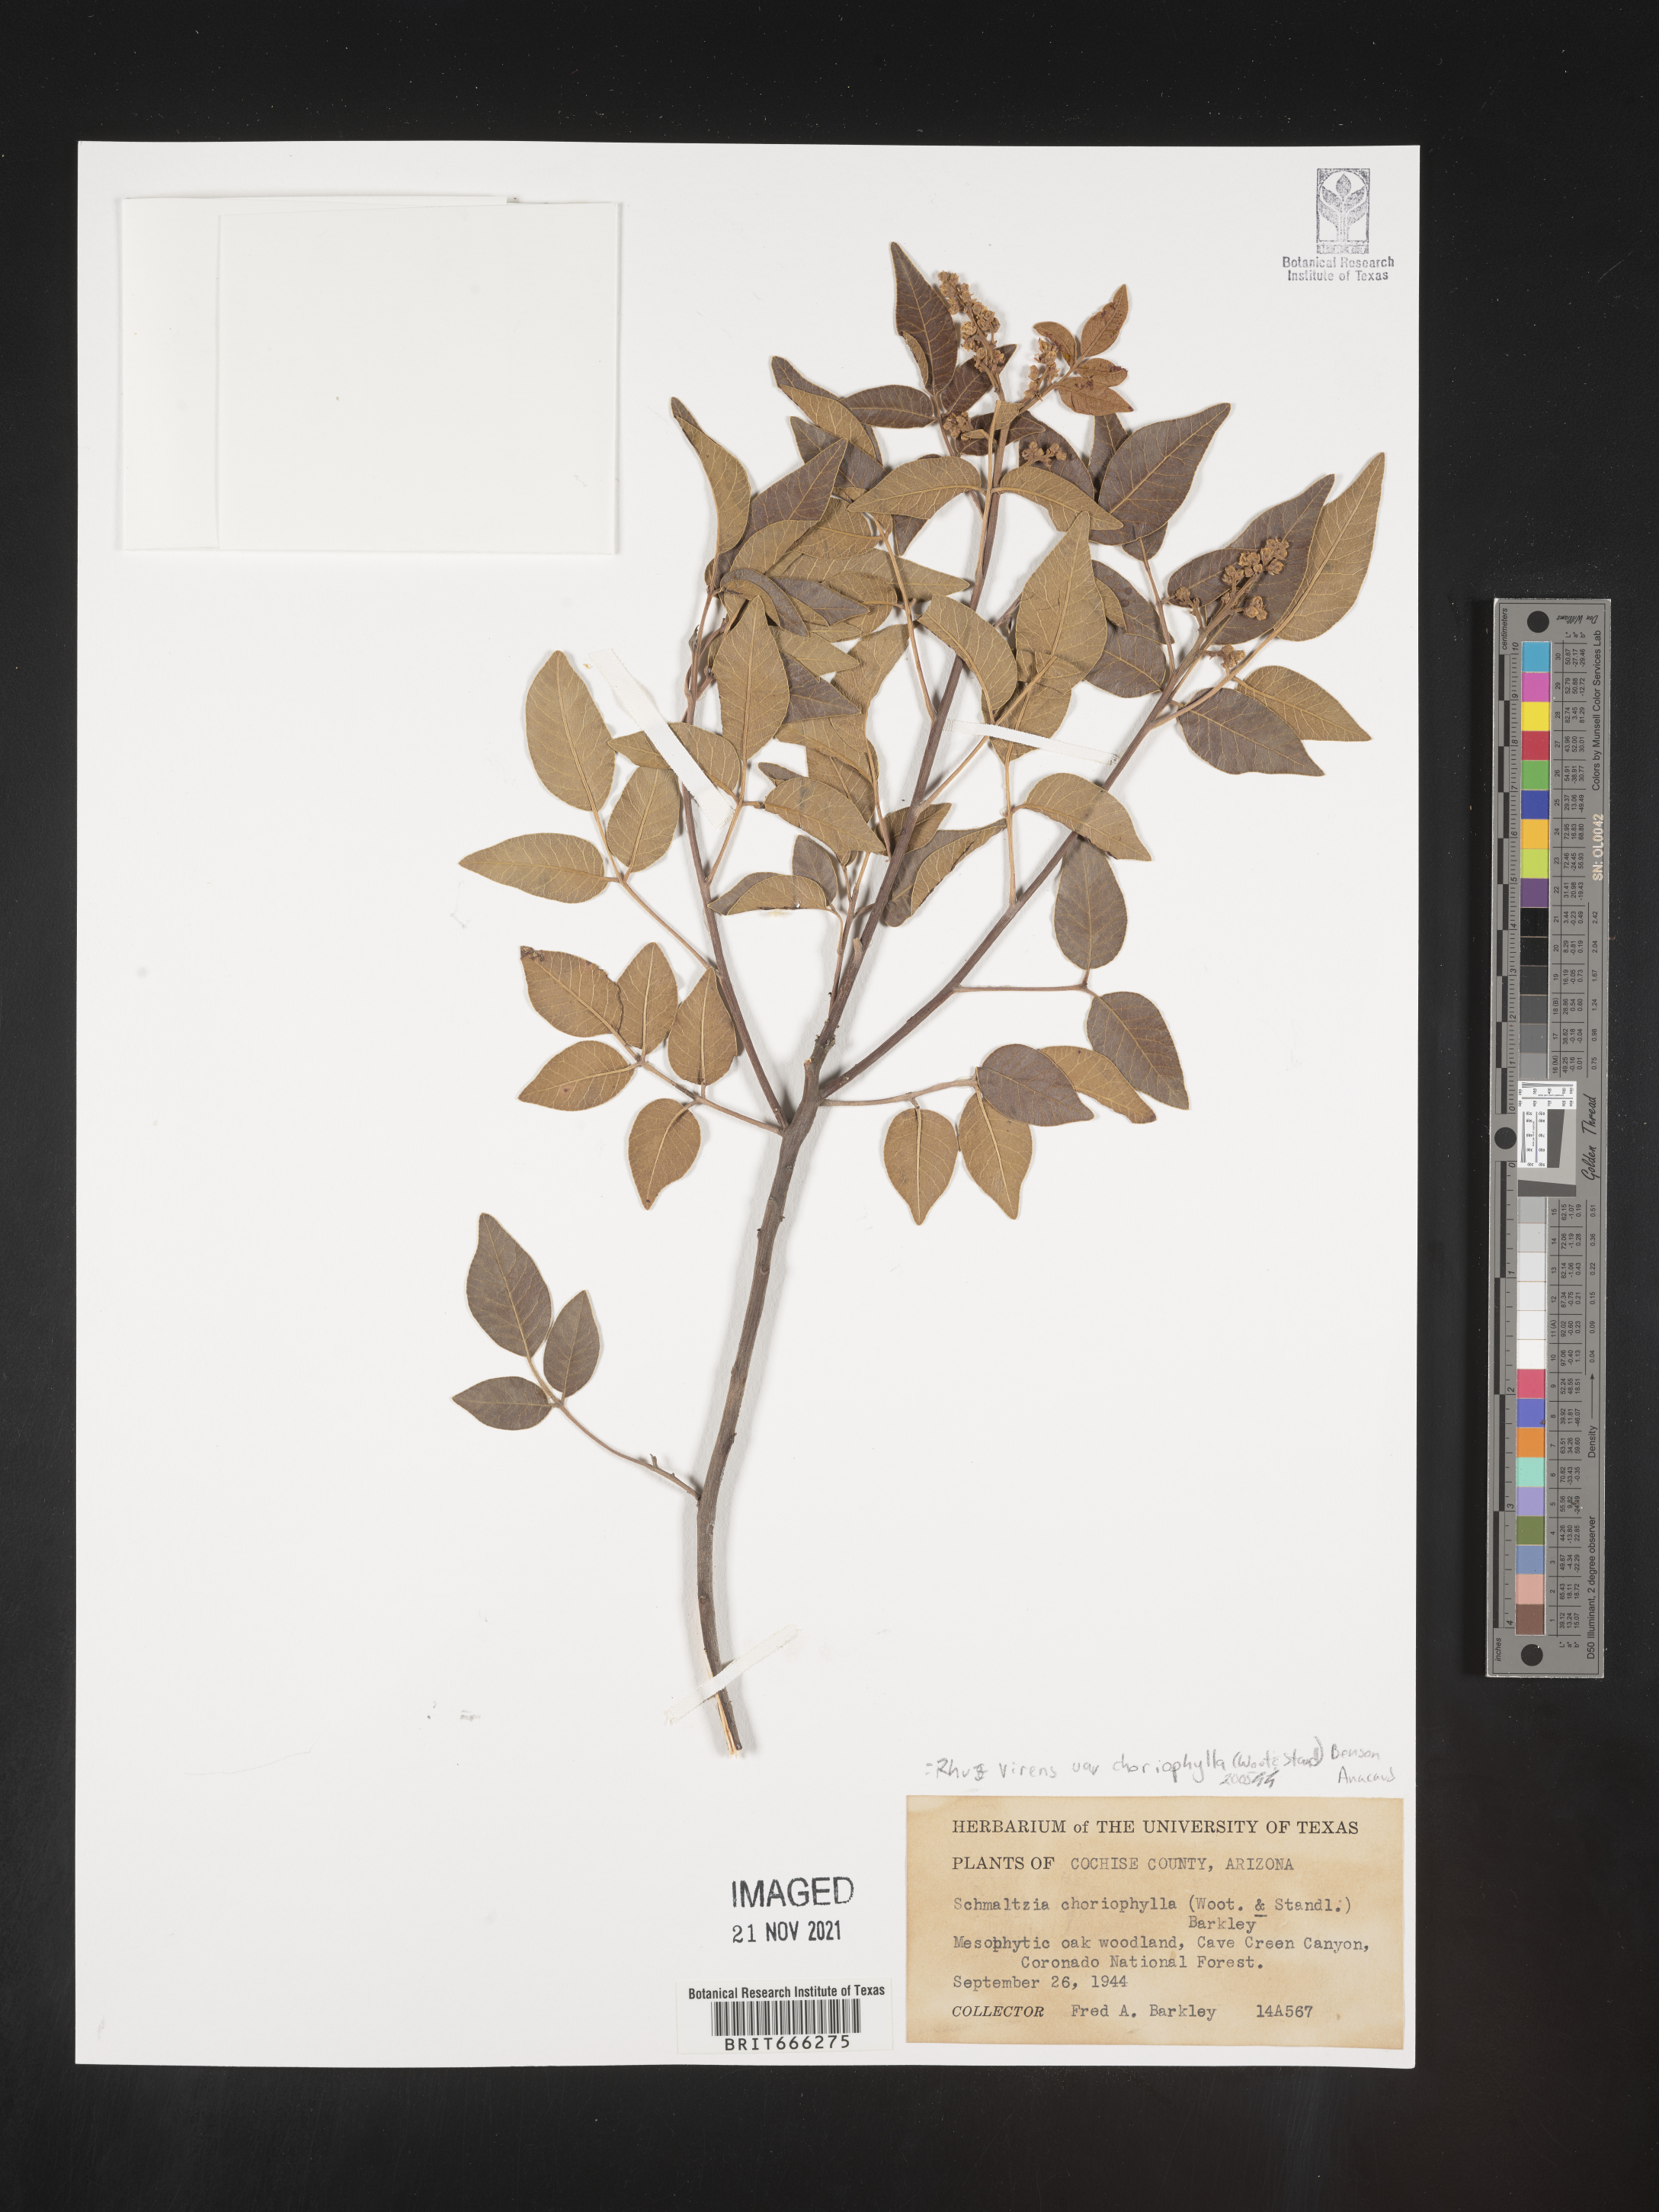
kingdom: Plantae
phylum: Tracheophyta
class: Magnoliopsida
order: Sapindales
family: Anacardiaceae
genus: Rhus
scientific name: Rhus virens
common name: Evergreen sumac
